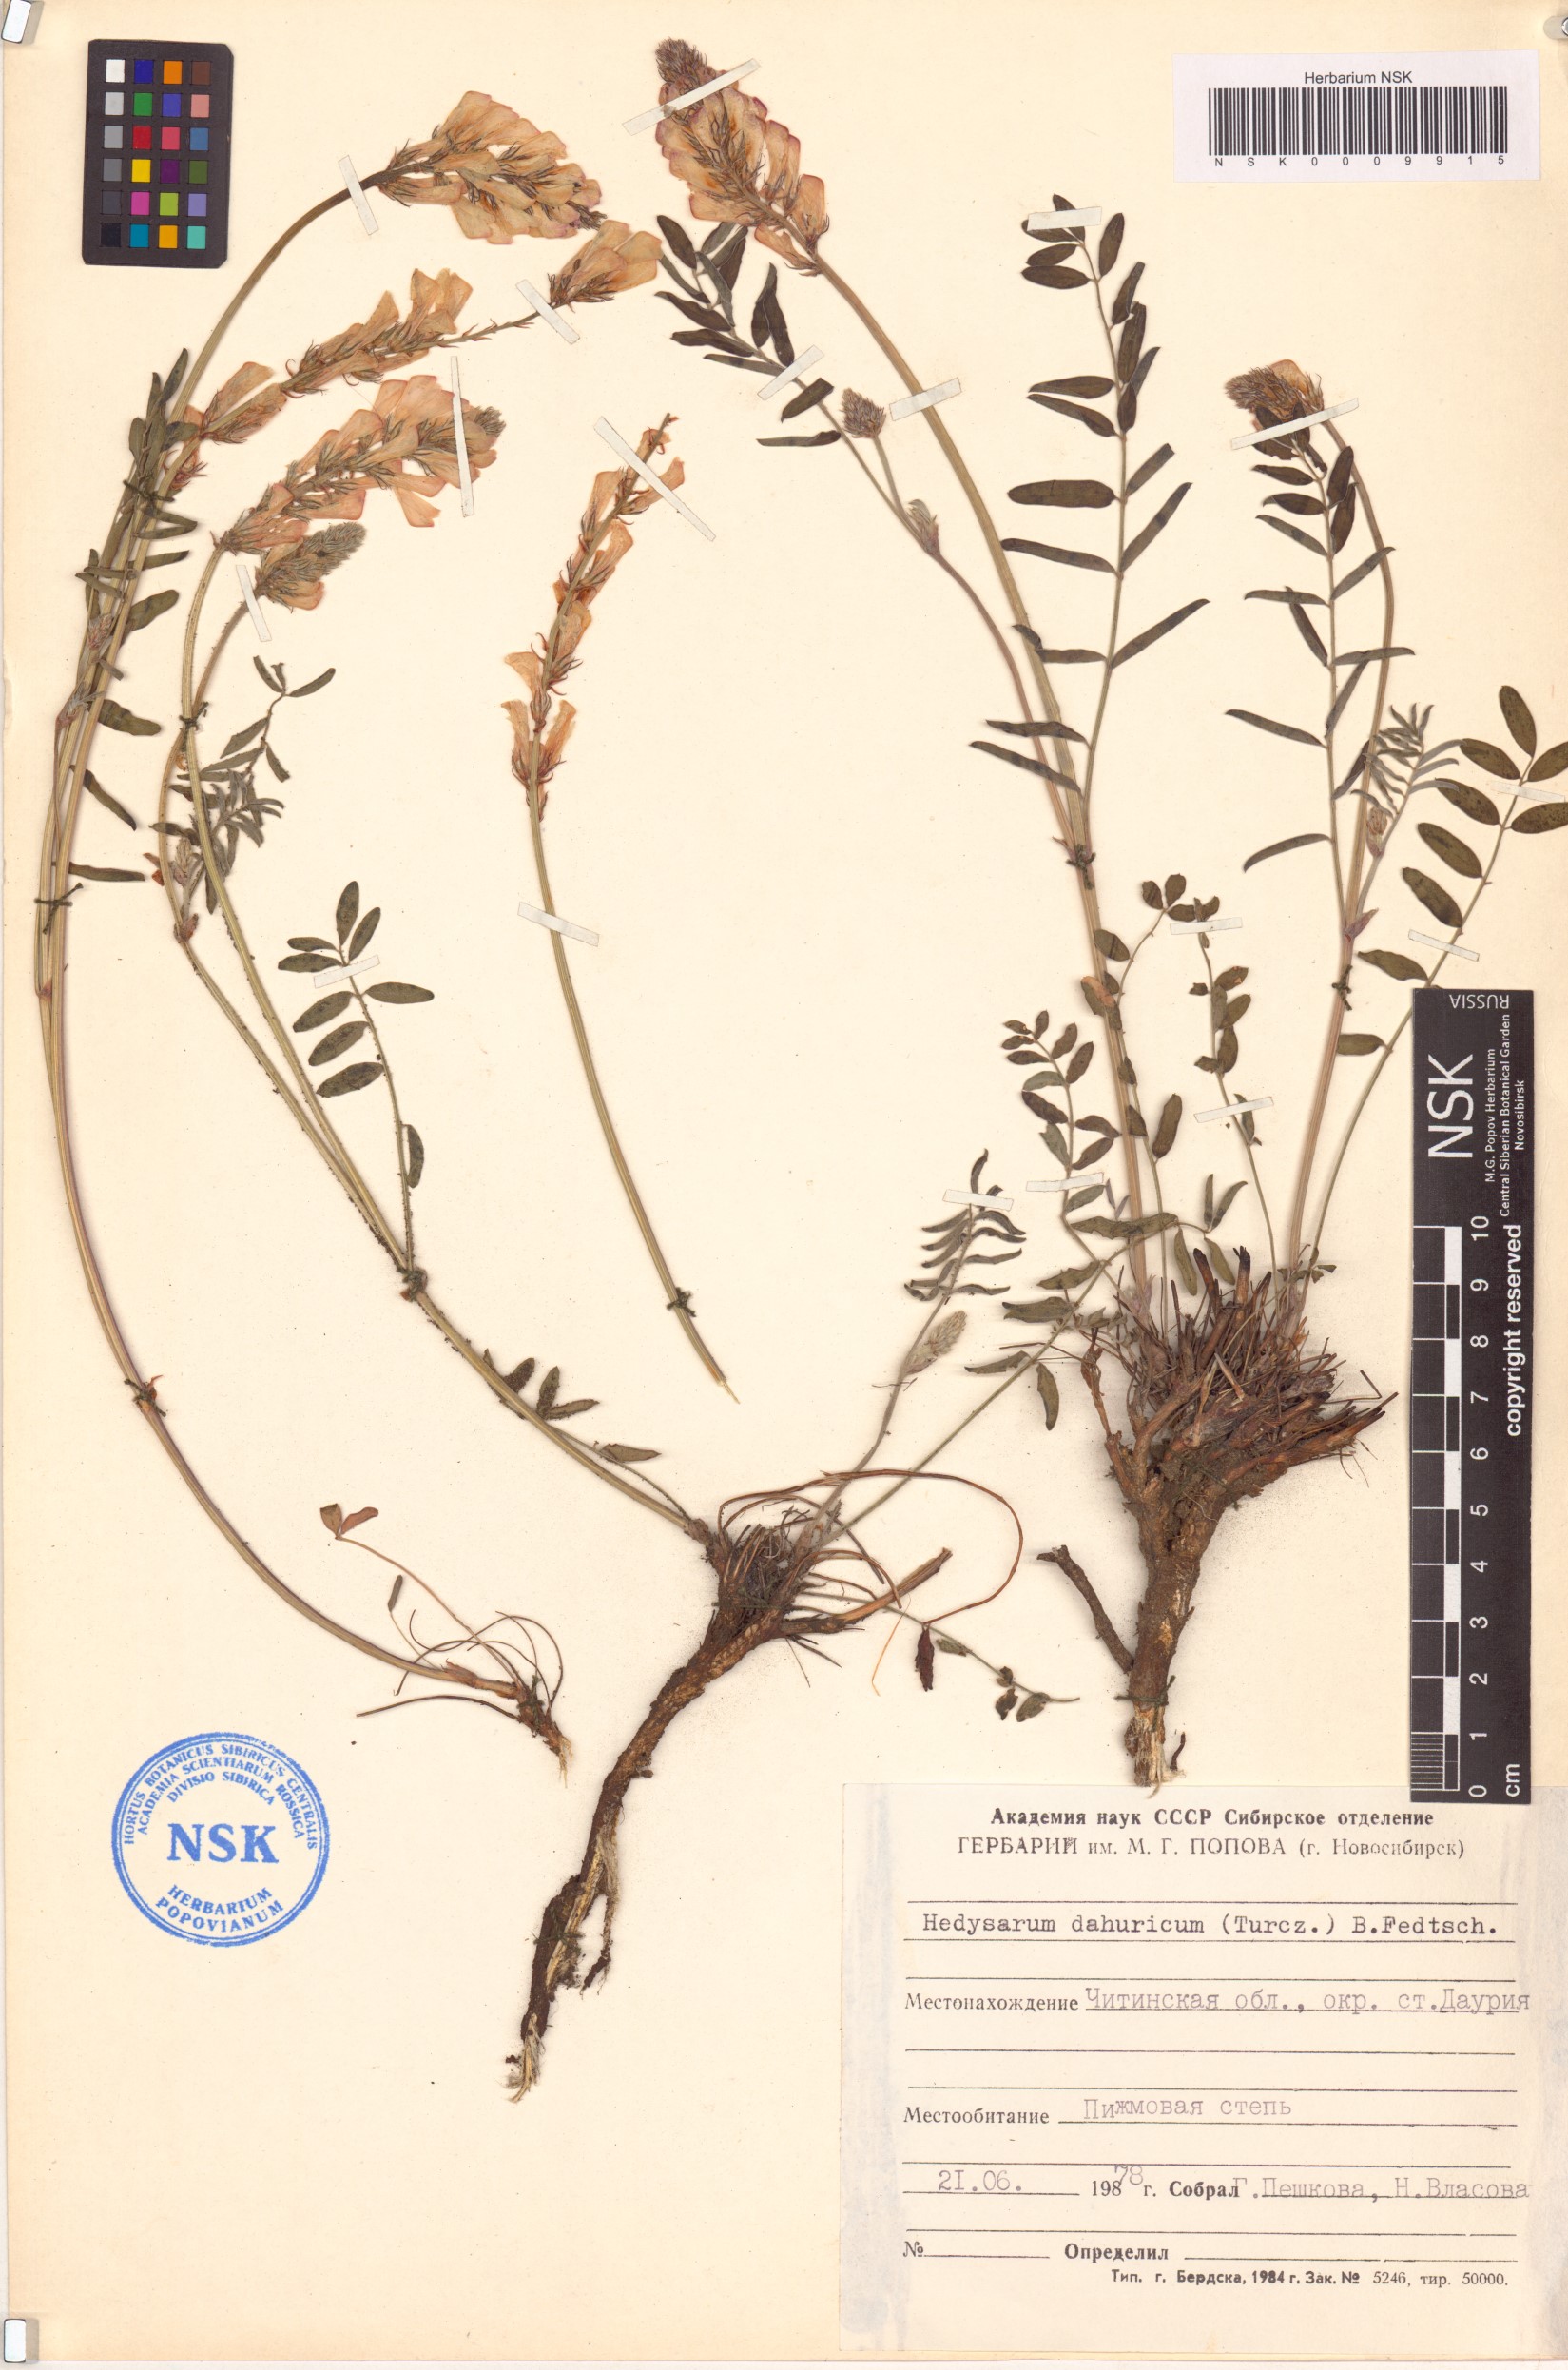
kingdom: Plantae
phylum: Tracheophyta
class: Magnoliopsida
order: Fabales
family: Fabaceae
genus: Hedysarum
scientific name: Hedysarum dahuricum
